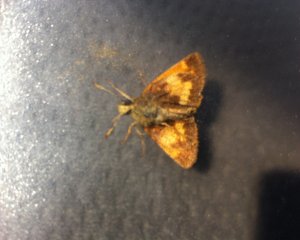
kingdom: Animalia
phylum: Arthropoda
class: Insecta
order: Lepidoptera
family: Hesperiidae
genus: Lon
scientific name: Lon hobomok
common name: Hobomok Skipper
